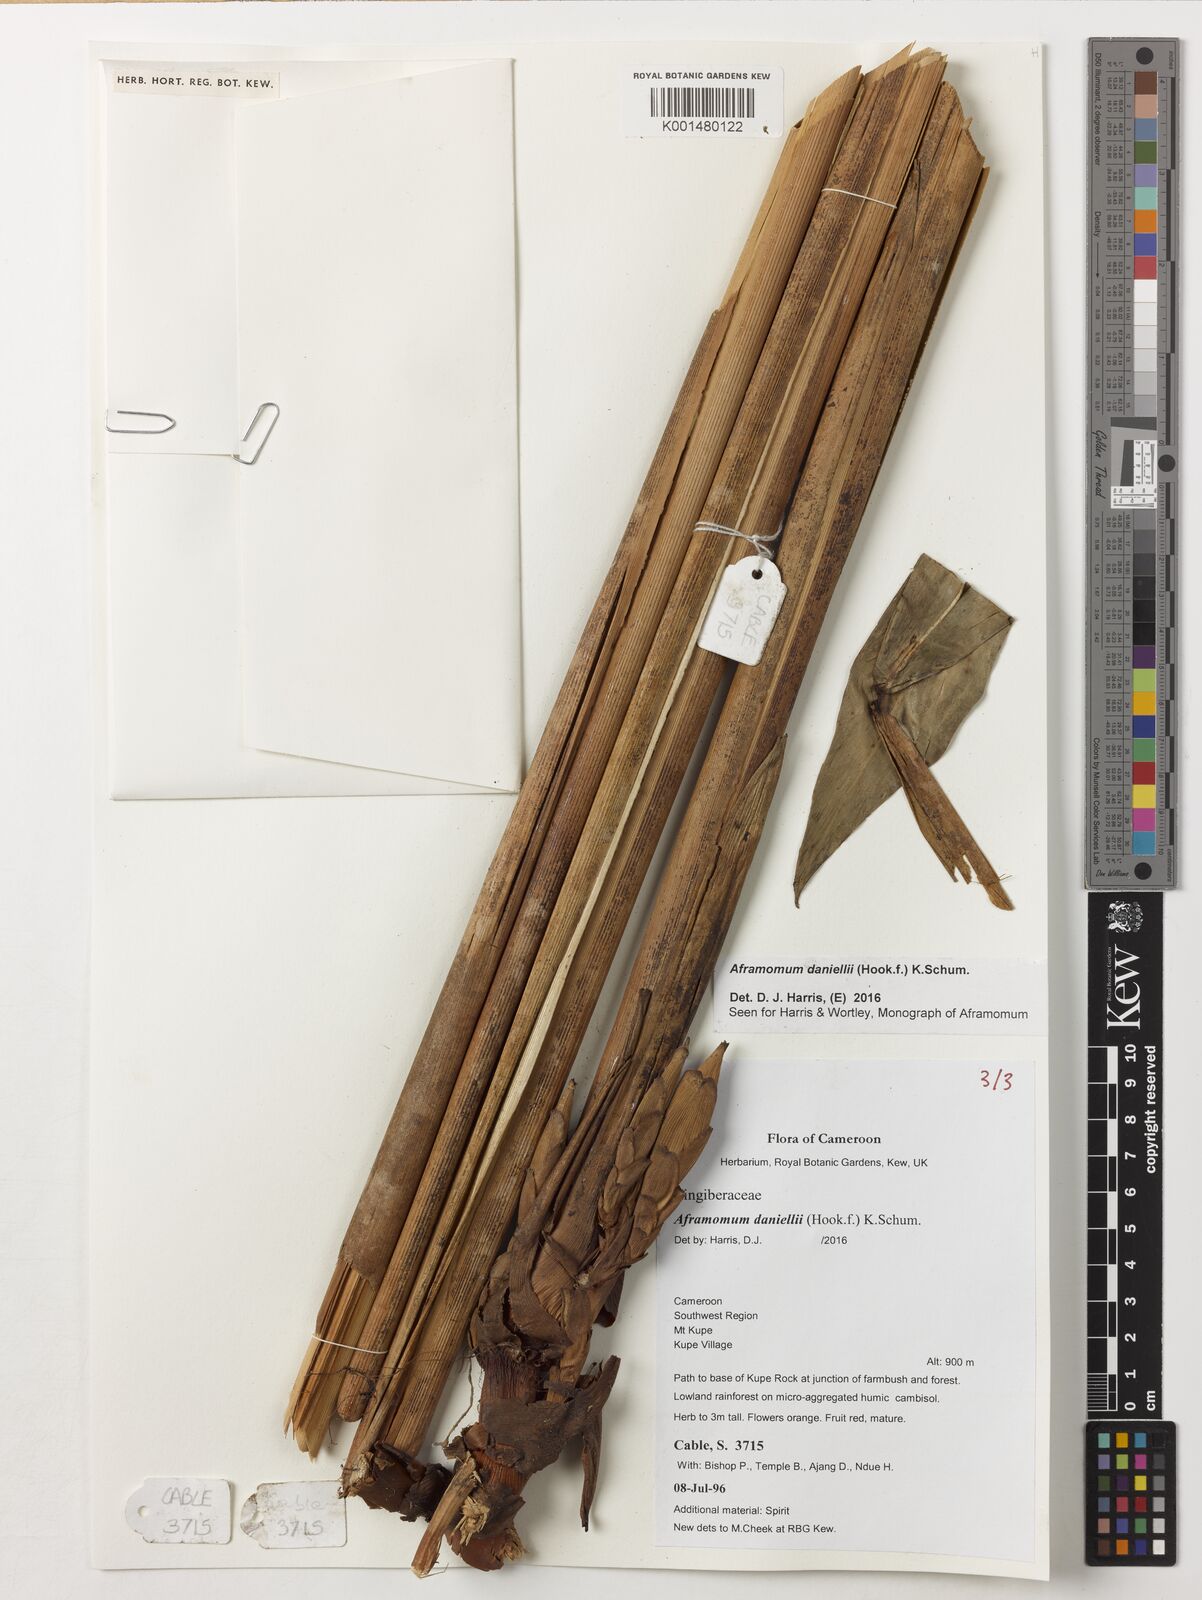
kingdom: Plantae
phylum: Tracheophyta
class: Liliopsida
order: Zingiberales
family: Zingiberaceae
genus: Aframomum
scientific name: Aframomum daniellii
